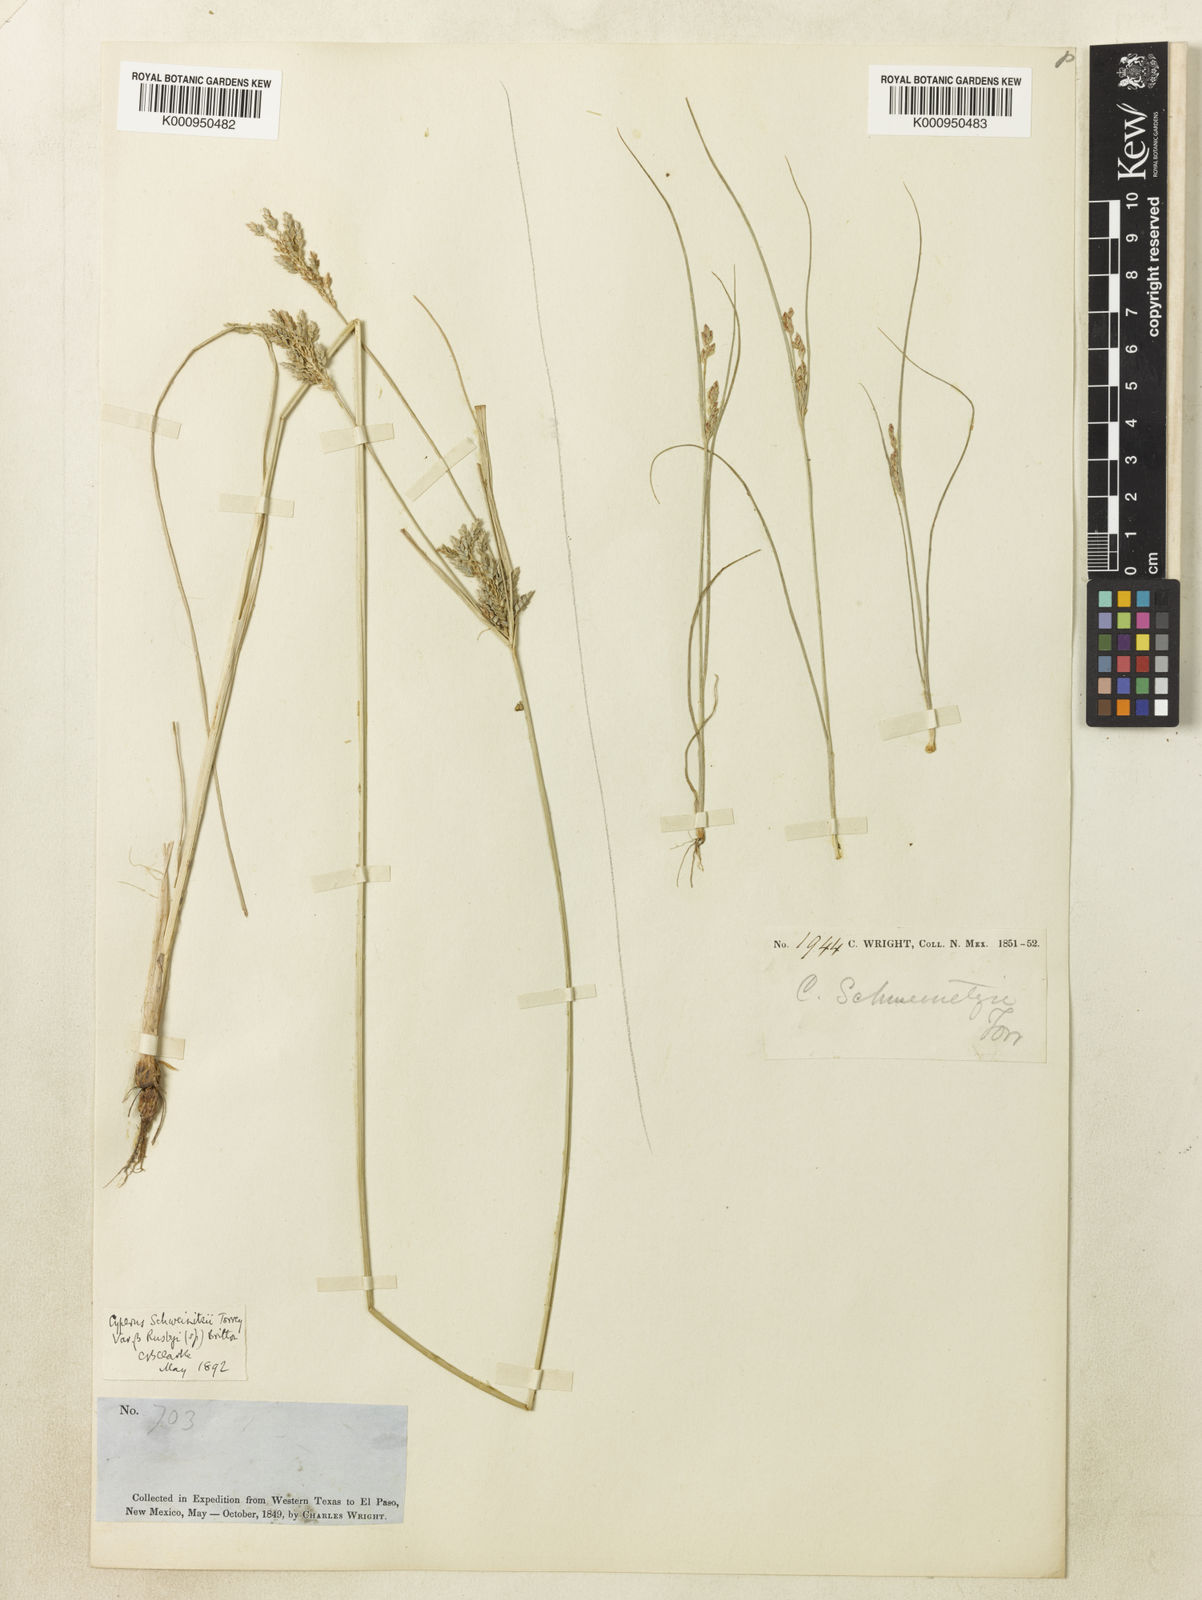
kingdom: Plantae
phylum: Tracheophyta
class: Liliopsida
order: Poales
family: Cyperaceae
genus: Cyperus
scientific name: Cyperus schweinitzii
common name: Schweinitz's cyperus
